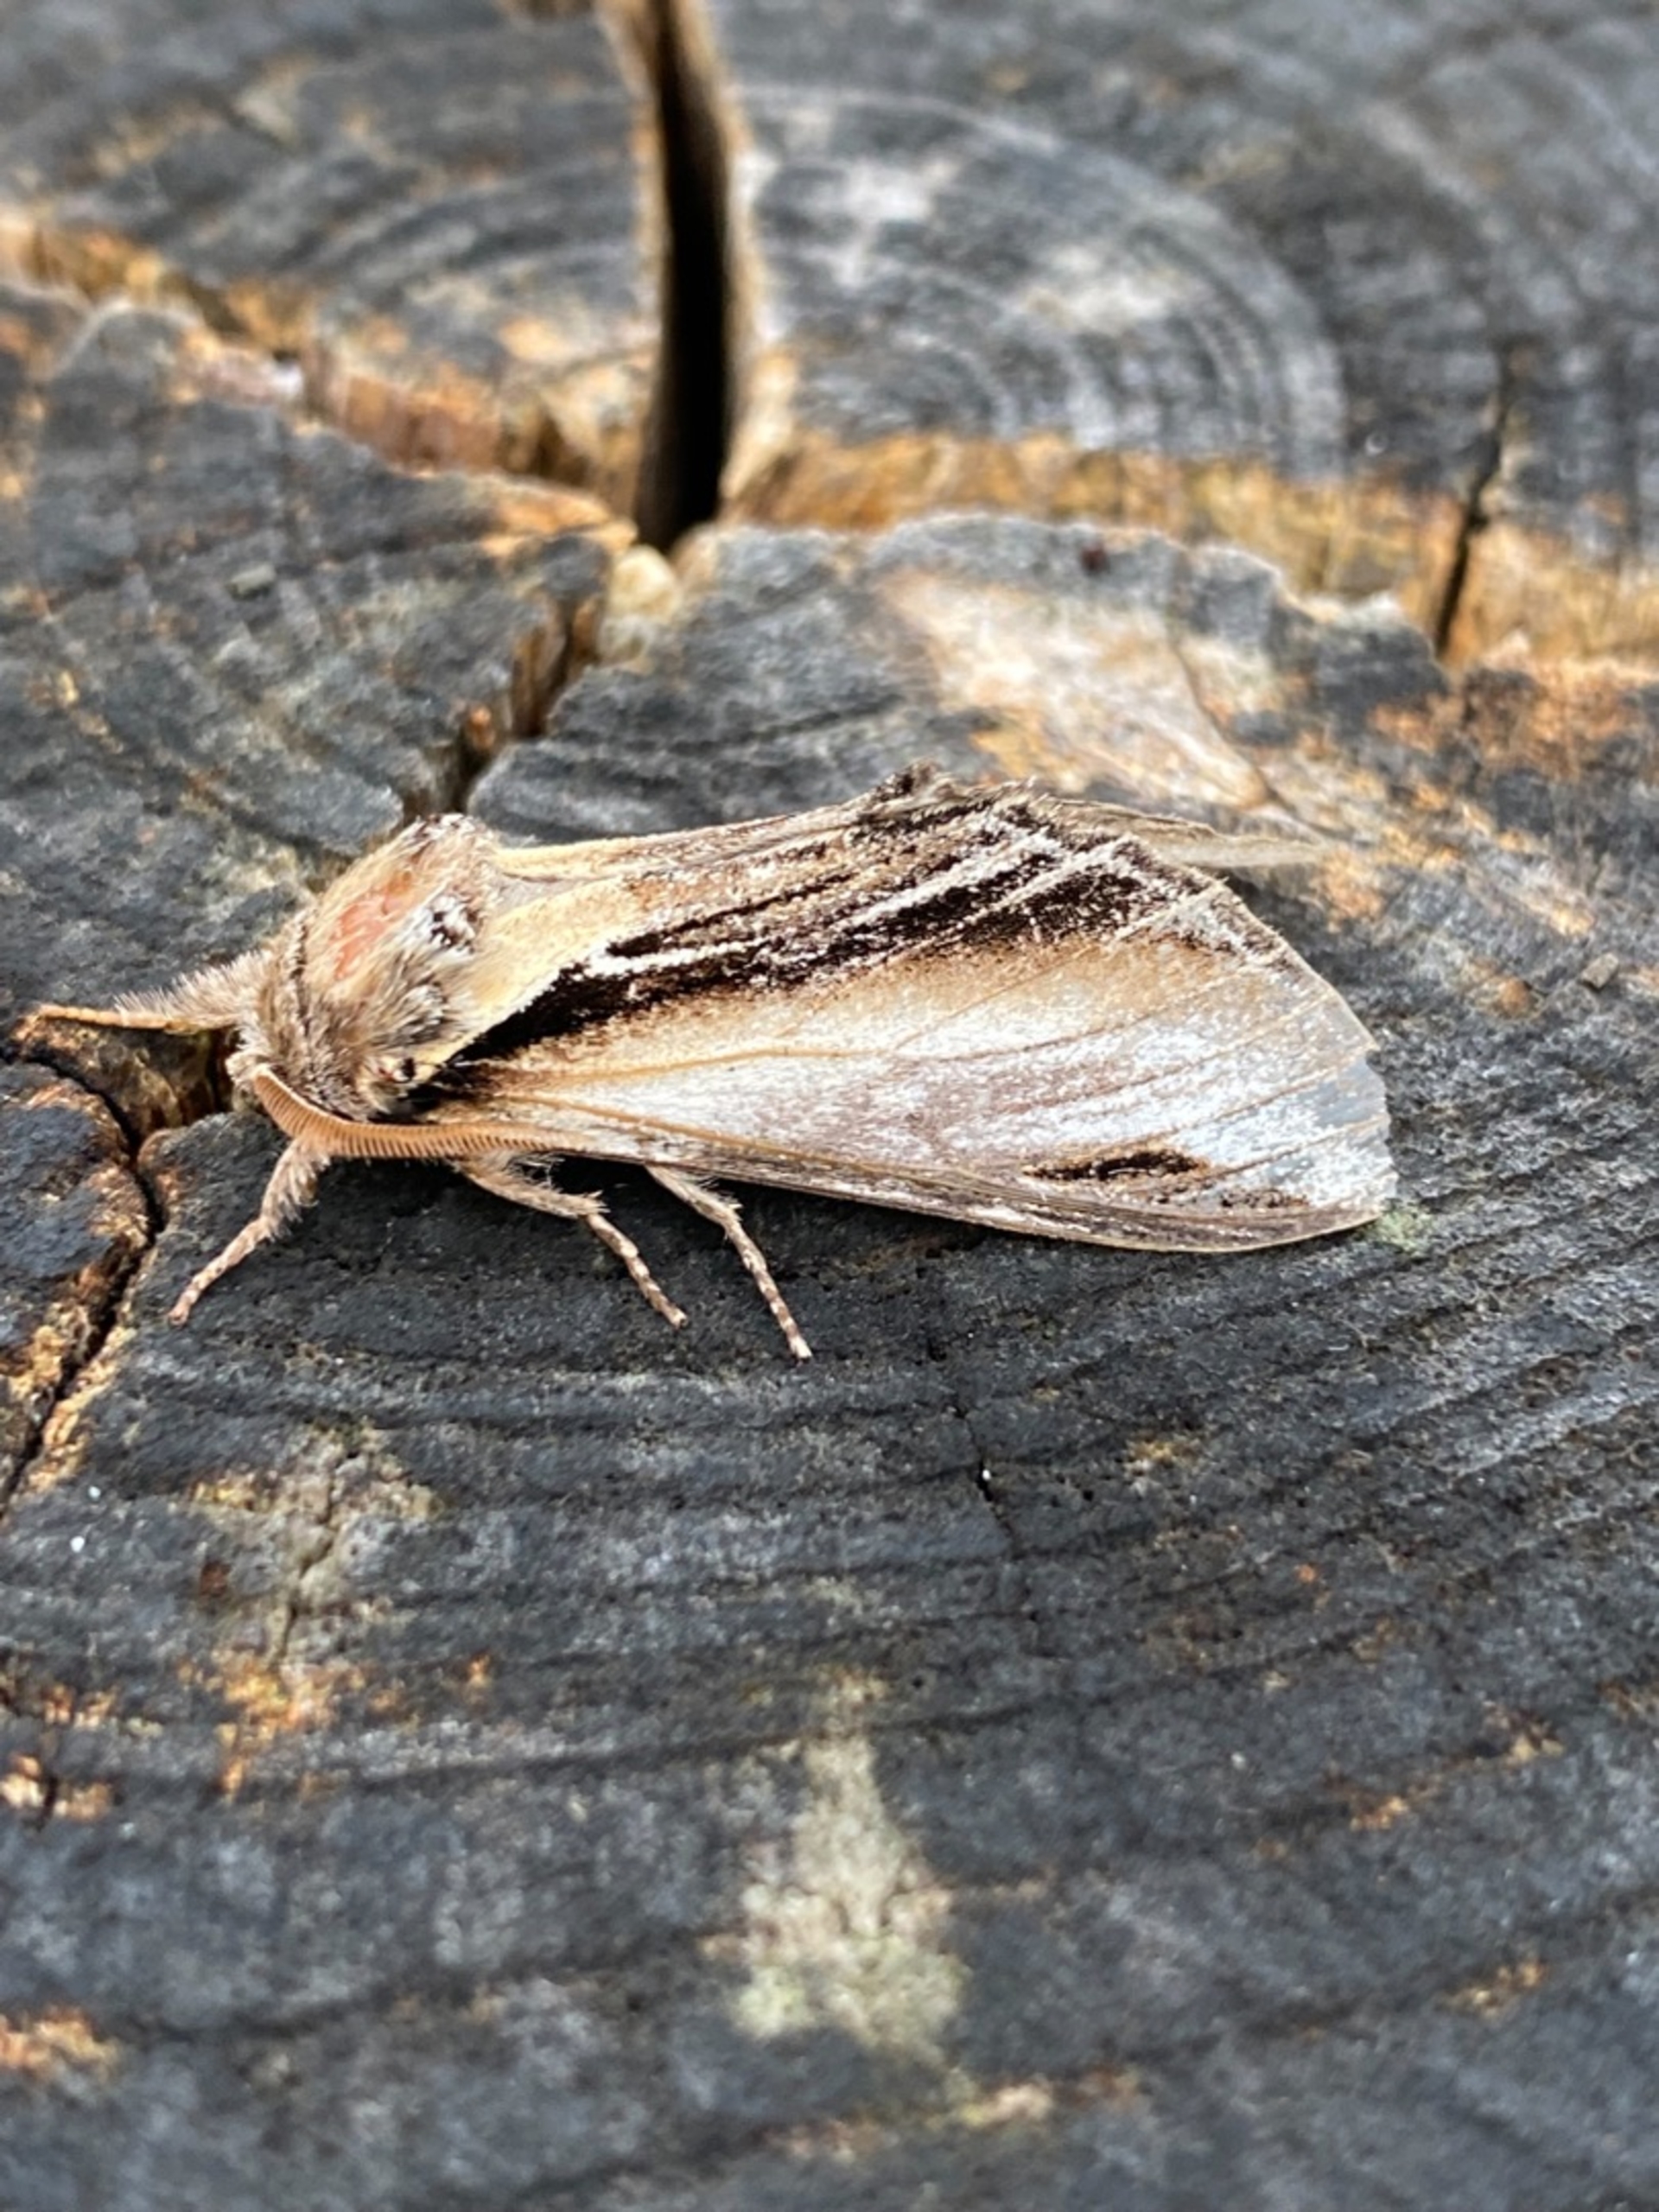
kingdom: Animalia
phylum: Arthropoda
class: Insecta
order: Lepidoptera
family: Notodontidae
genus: Pheosia
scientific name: Pheosia tremula
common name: Poppelporcelænsspinder
